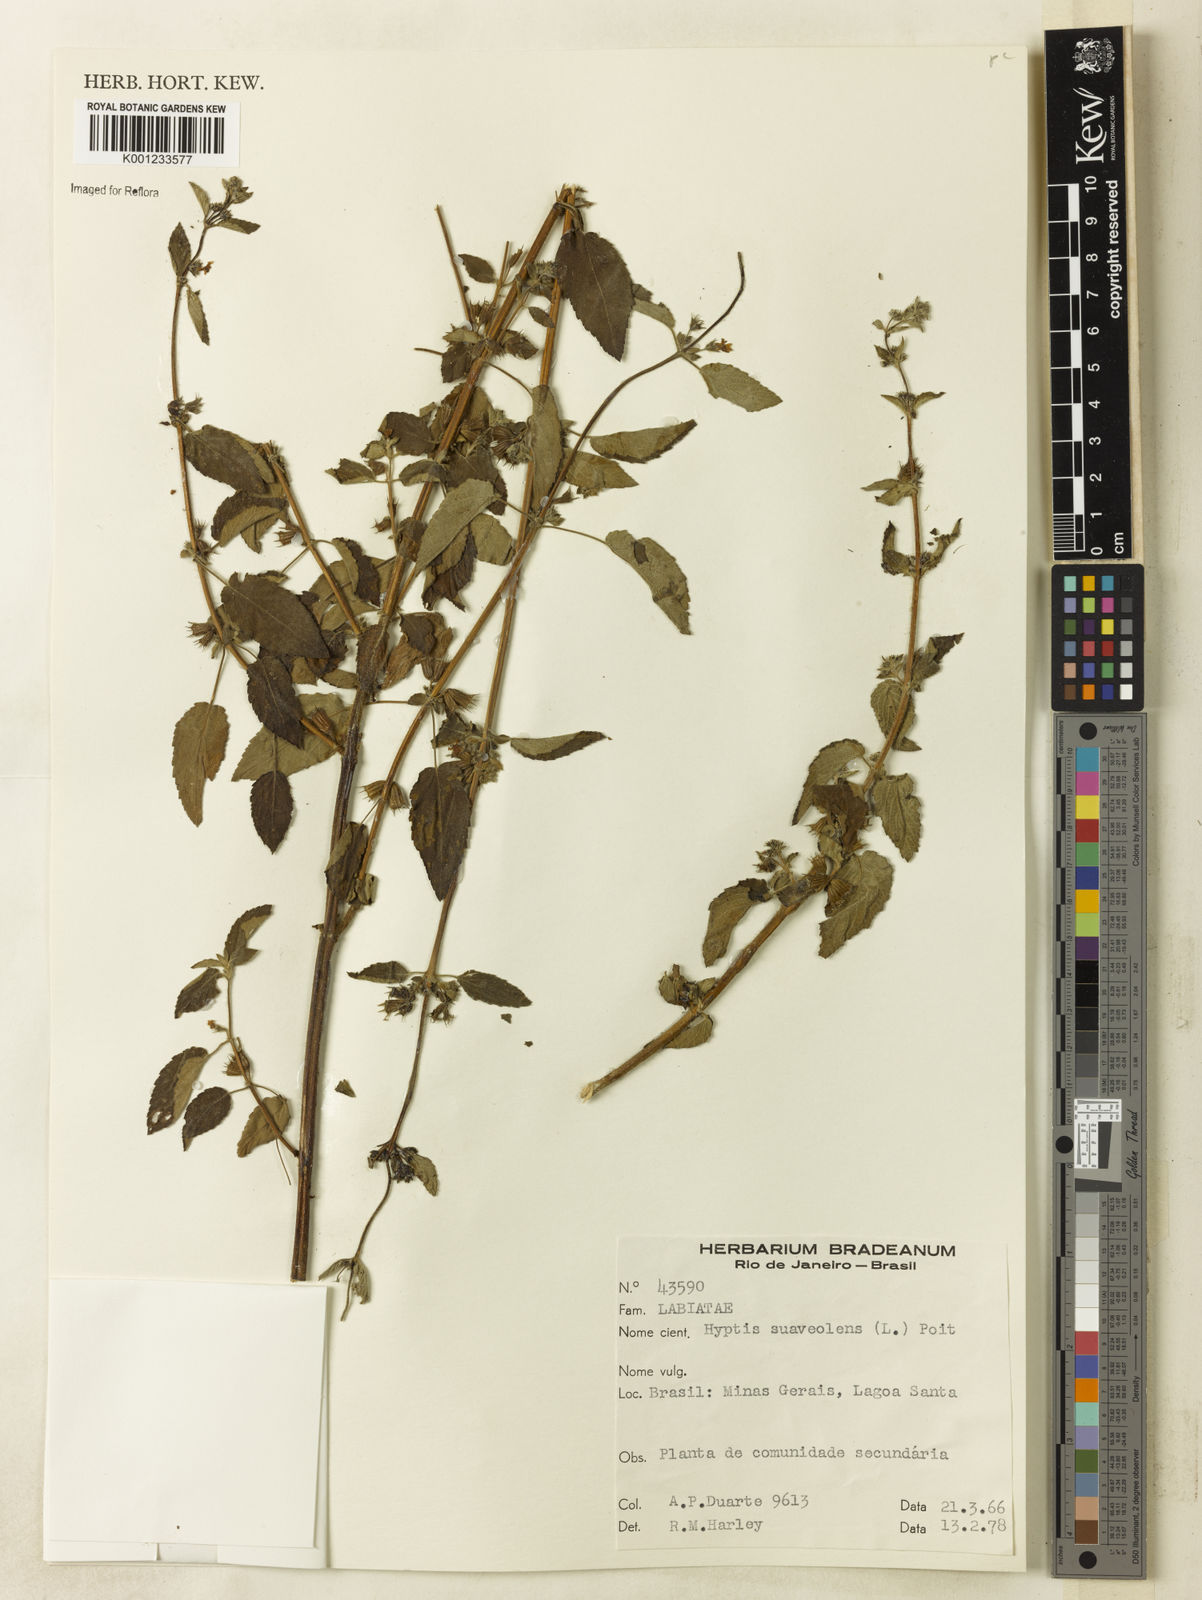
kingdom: Plantae
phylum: Tracheophyta
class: Magnoliopsida
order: Lamiales
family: Lamiaceae
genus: Mesosphaerum
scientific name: Mesosphaerum suaveolens
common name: Pignut
